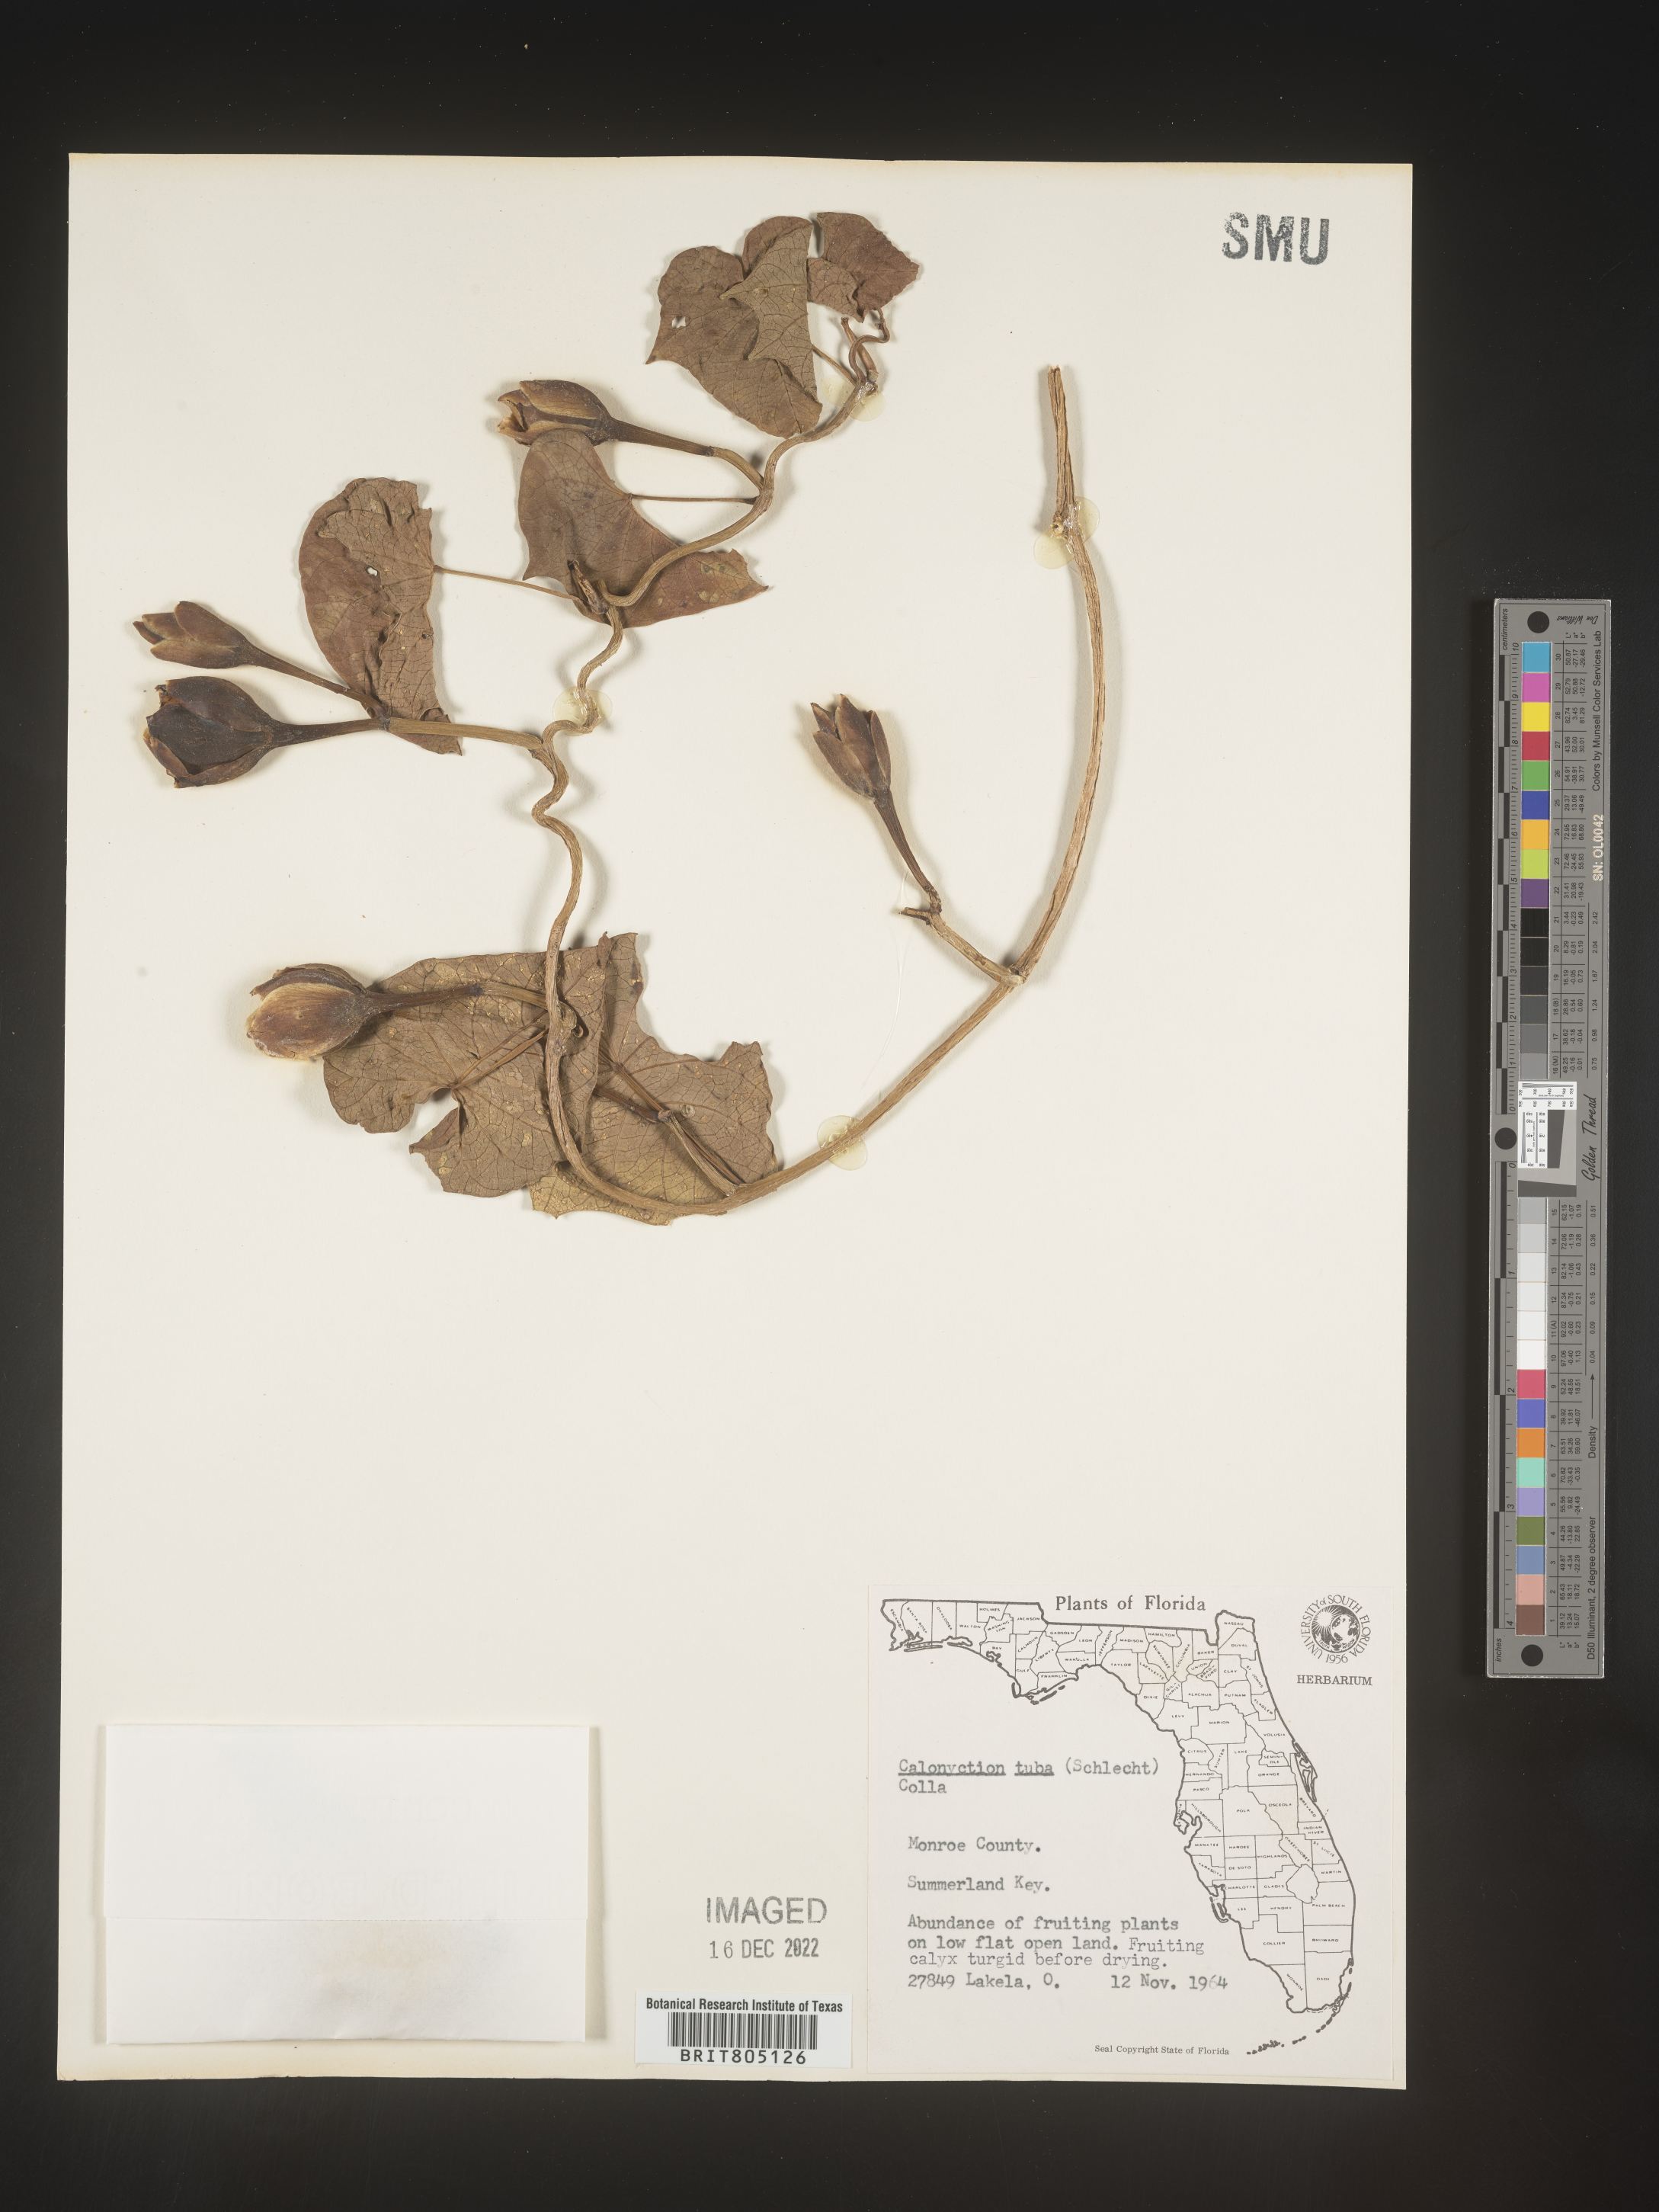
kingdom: Plantae
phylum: Tracheophyta
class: Magnoliopsida
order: Solanales
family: Convolvulaceae
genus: Ipomoea
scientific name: Ipomoea violacea
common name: Beach moonflower
